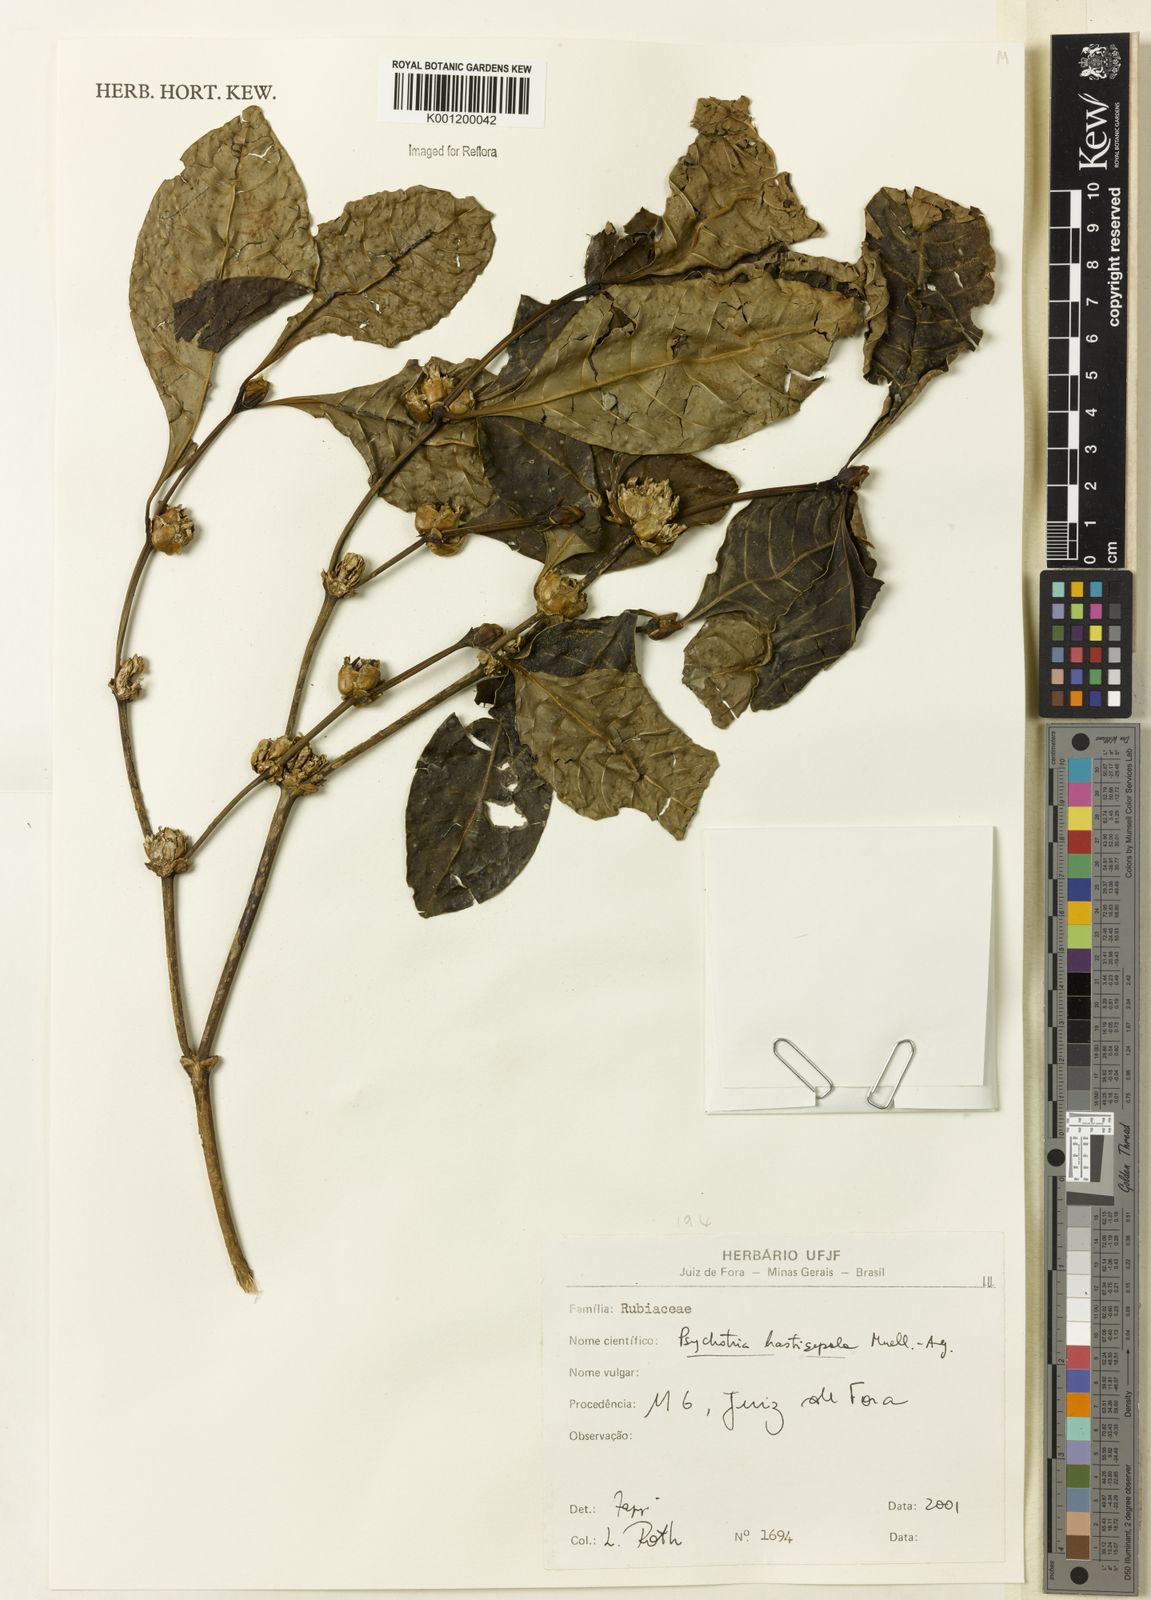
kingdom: Plantae
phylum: Tracheophyta
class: Magnoliopsida
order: Gentianales
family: Rubiaceae
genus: Psychotria
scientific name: Psychotria
